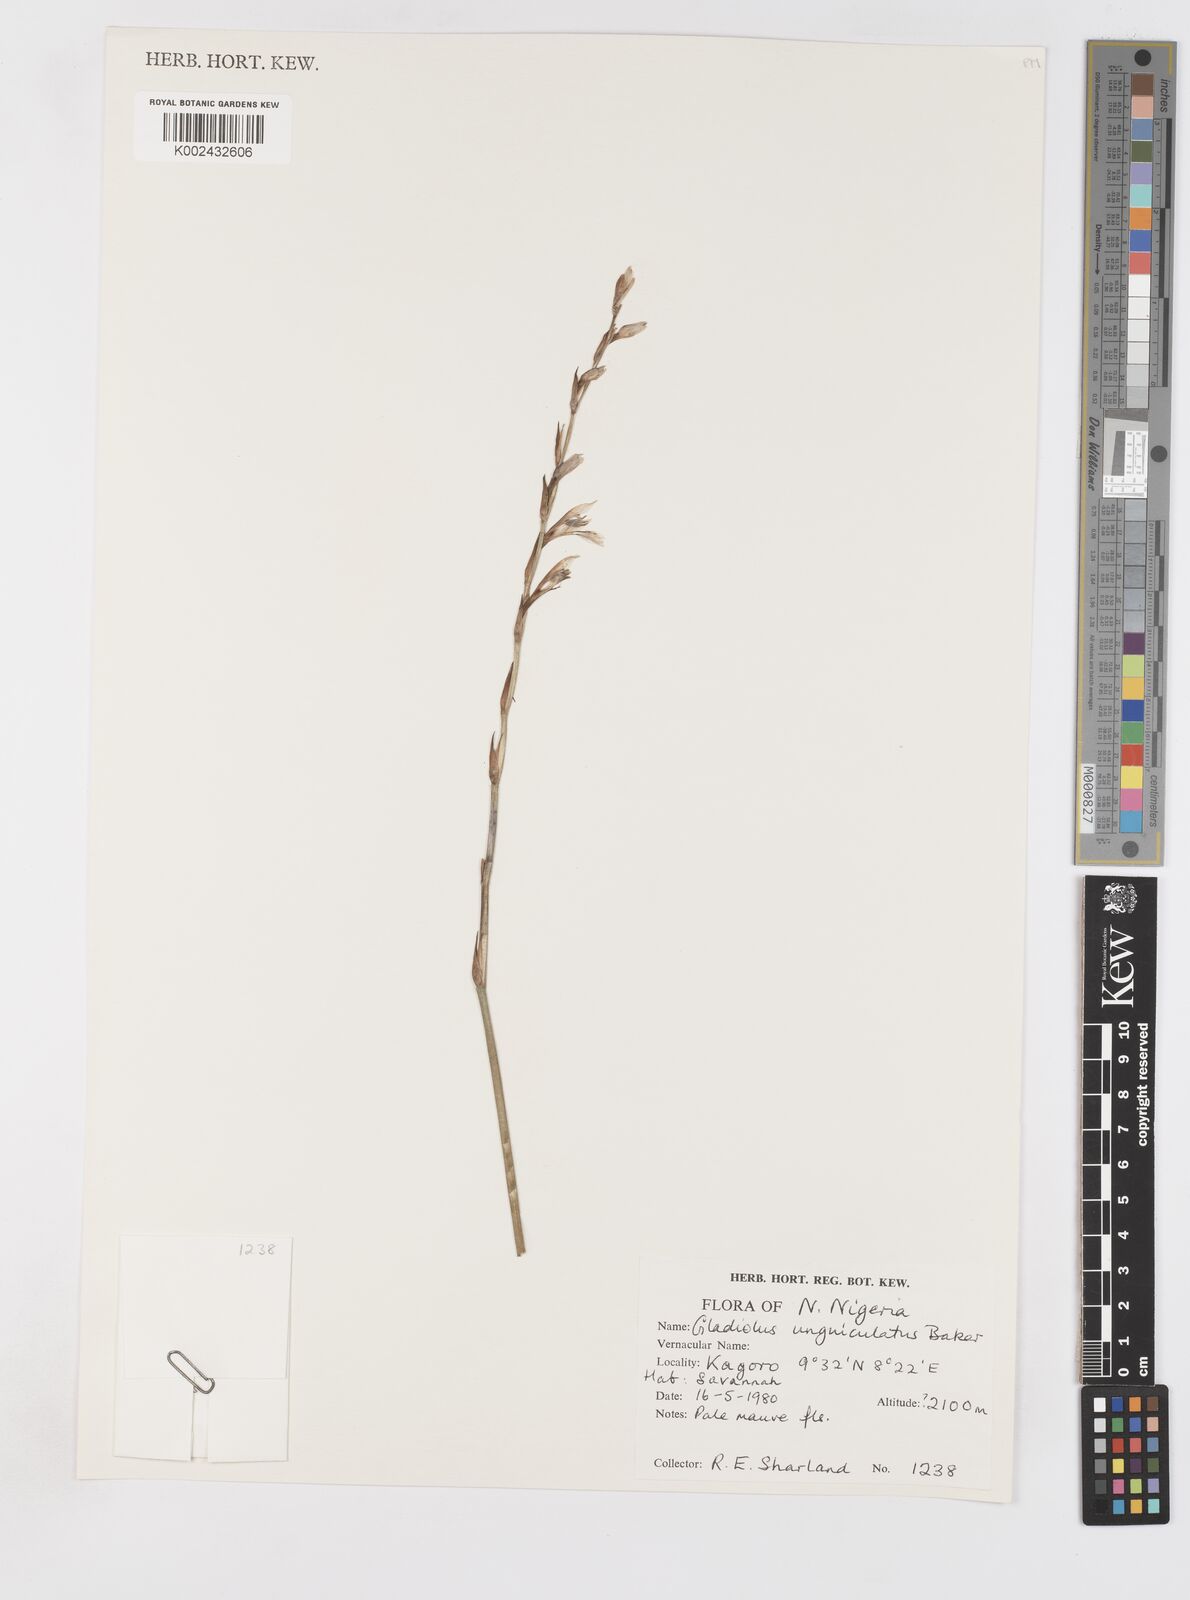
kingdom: Plantae
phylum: Tracheophyta
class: Liliopsida
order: Asparagales
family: Iridaceae
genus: Gladiolus
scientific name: Gladiolus unguiculatus
